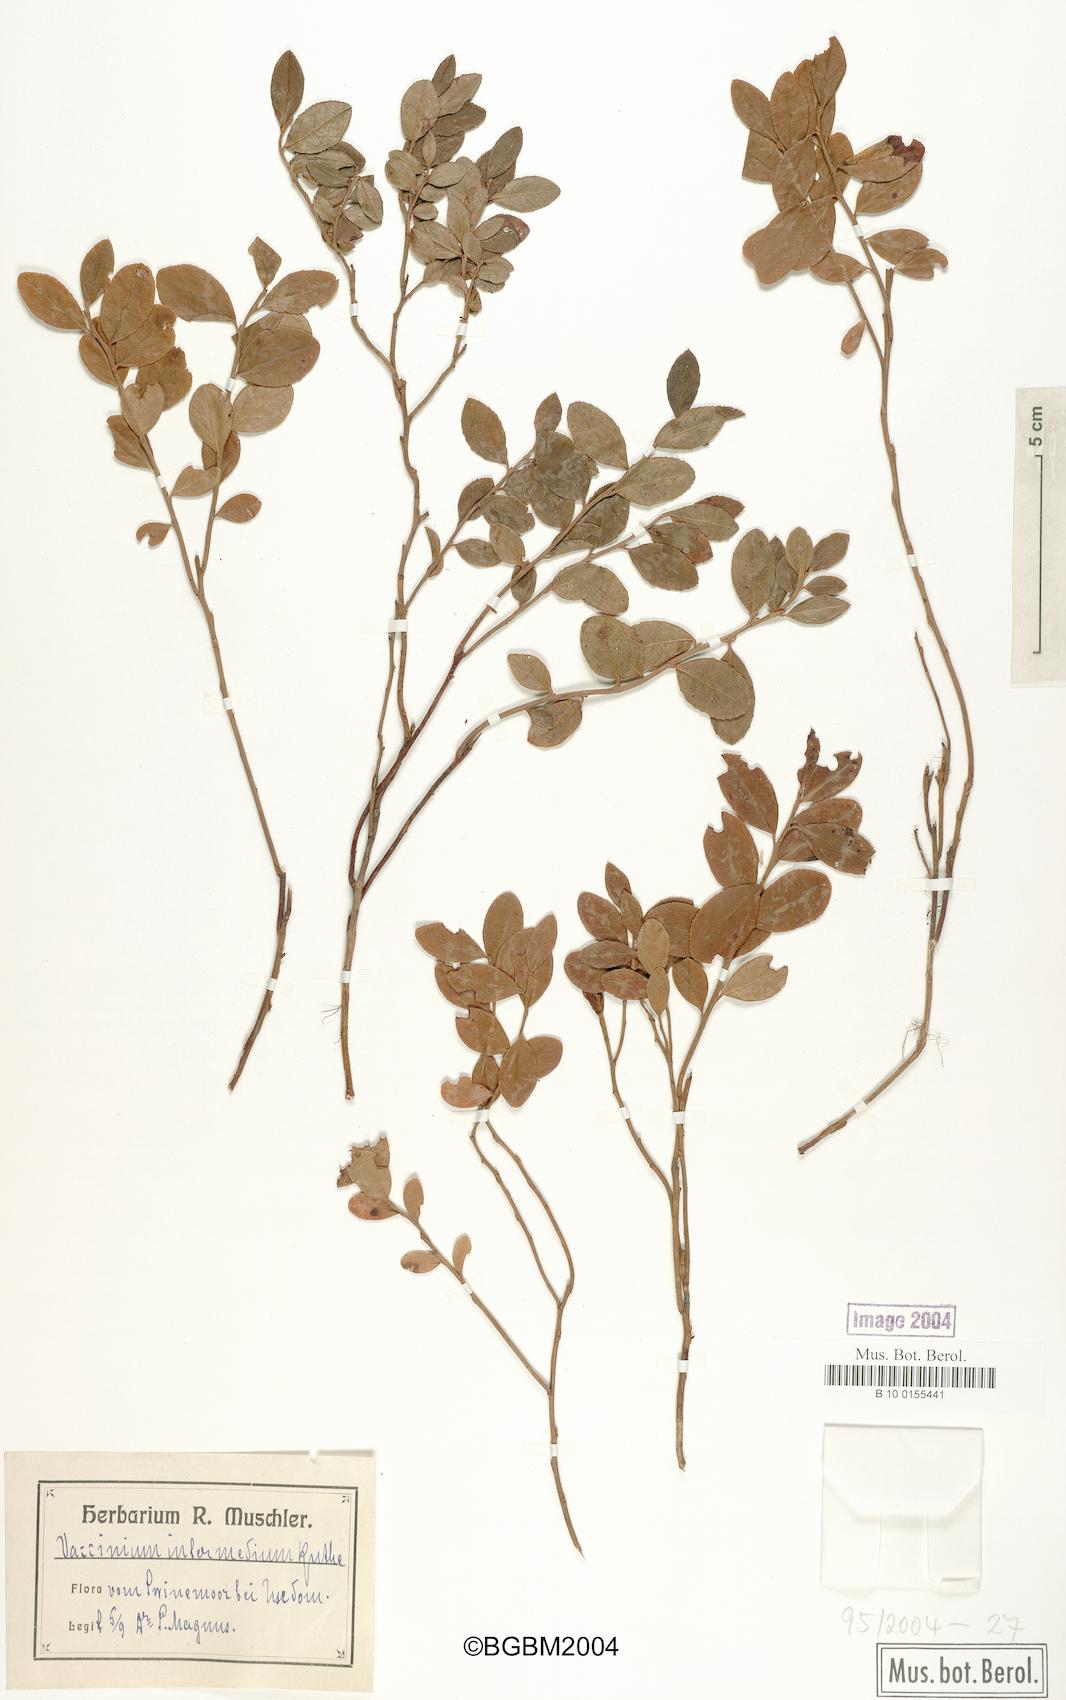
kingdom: Plantae
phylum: Tracheophyta
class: Magnoliopsida
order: Ericales
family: Ericaceae
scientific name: Ericaceae
